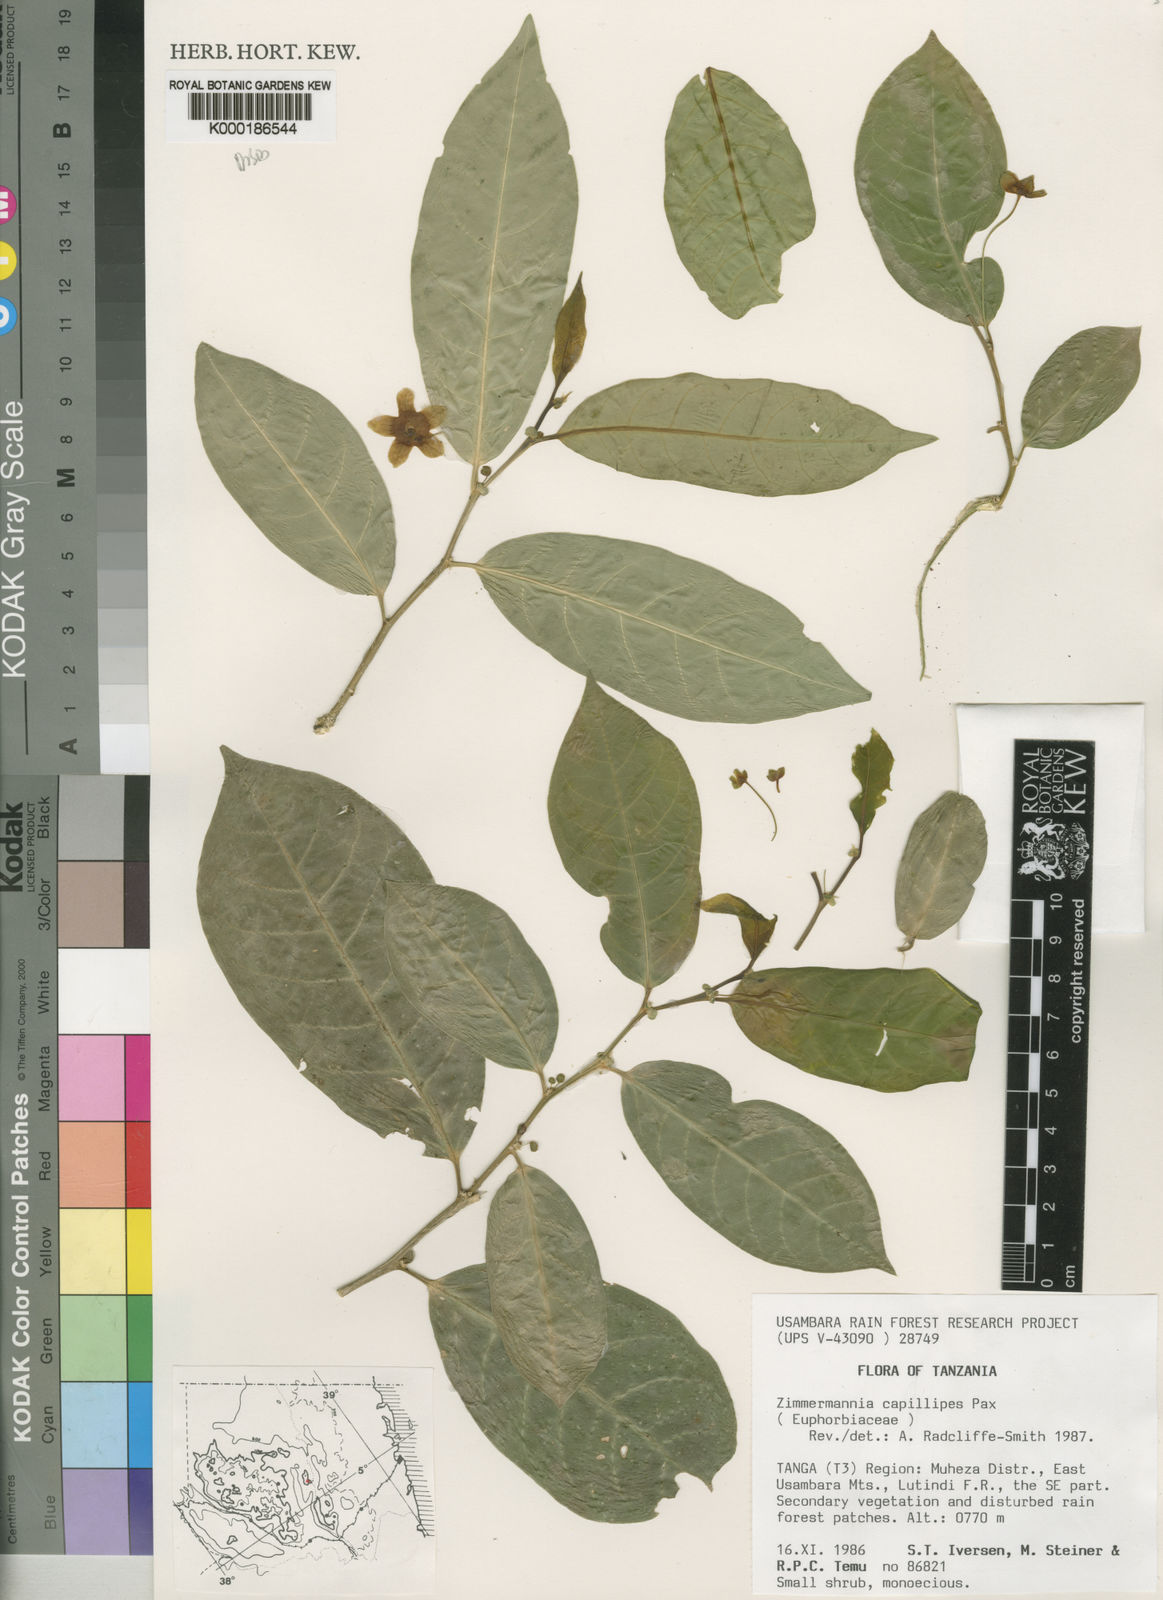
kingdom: Plantae
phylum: Tracheophyta
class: Magnoliopsida
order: Malpighiales
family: Phyllanthaceae
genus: Meineckia
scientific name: Meineckia paxii
